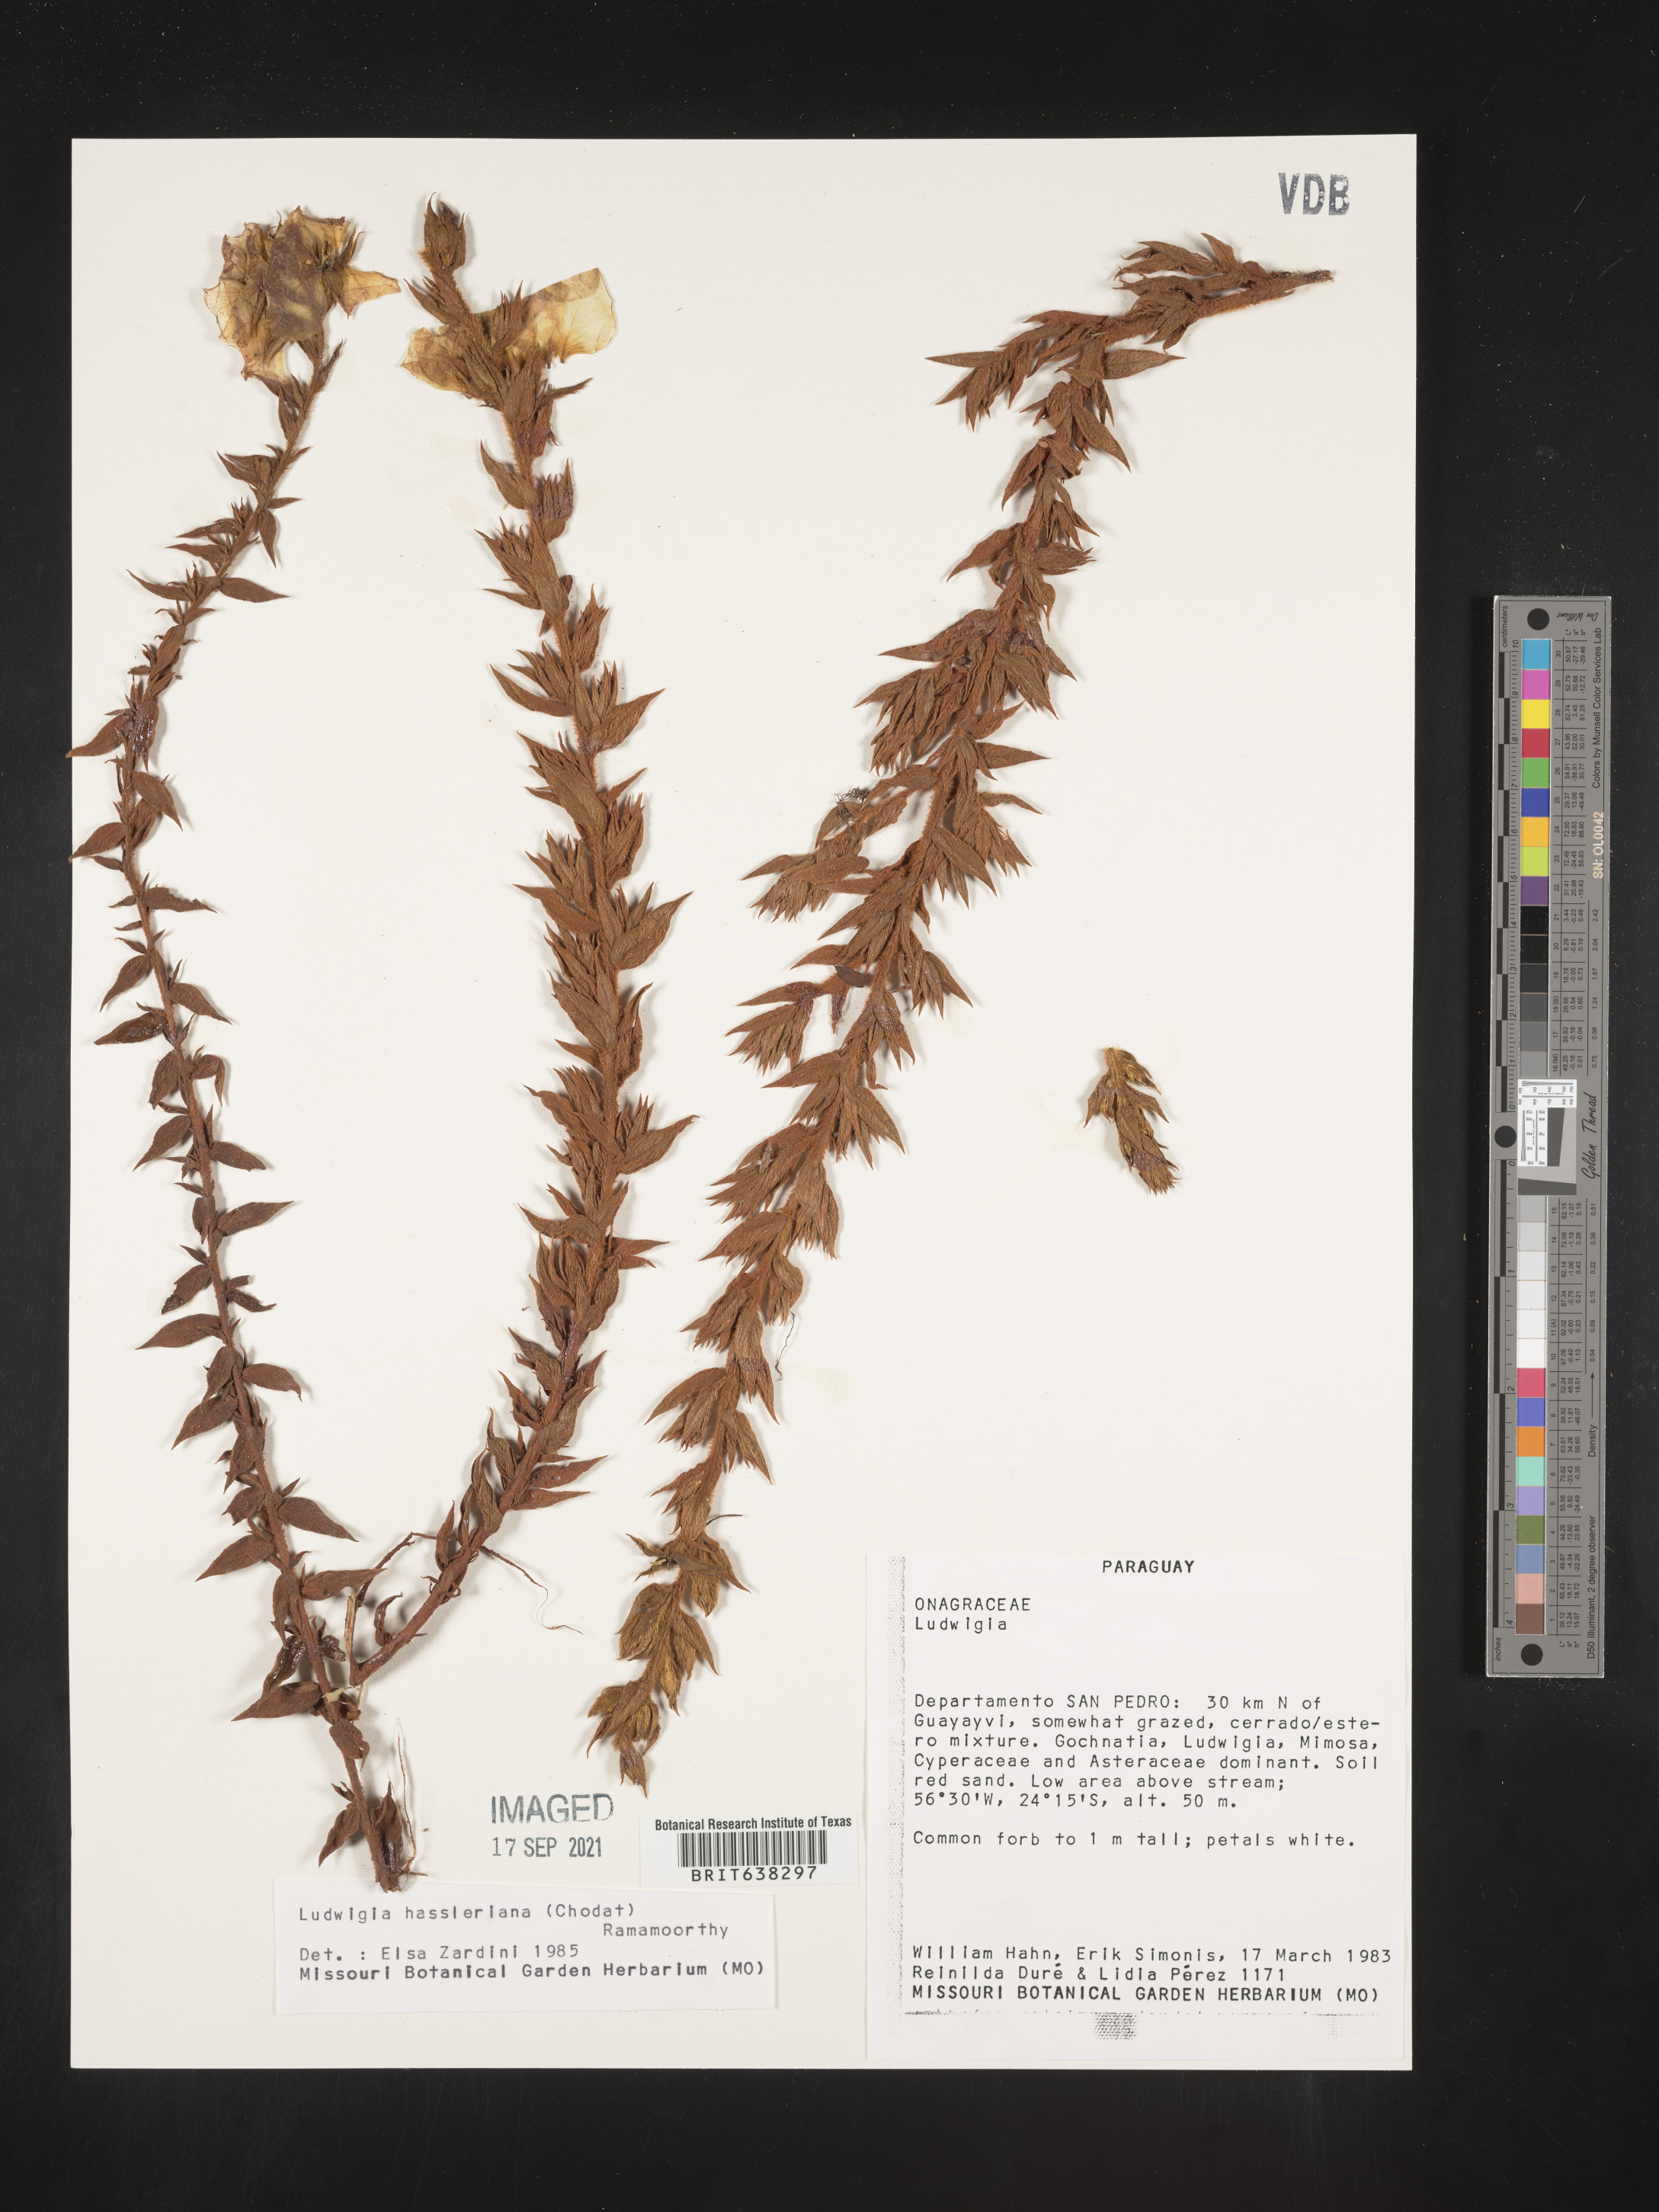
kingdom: Plantae
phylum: Tracheophyta
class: Magnoliopsida
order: Myrtales
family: Onagraceae
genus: Ludwigia
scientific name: Ludwigia
